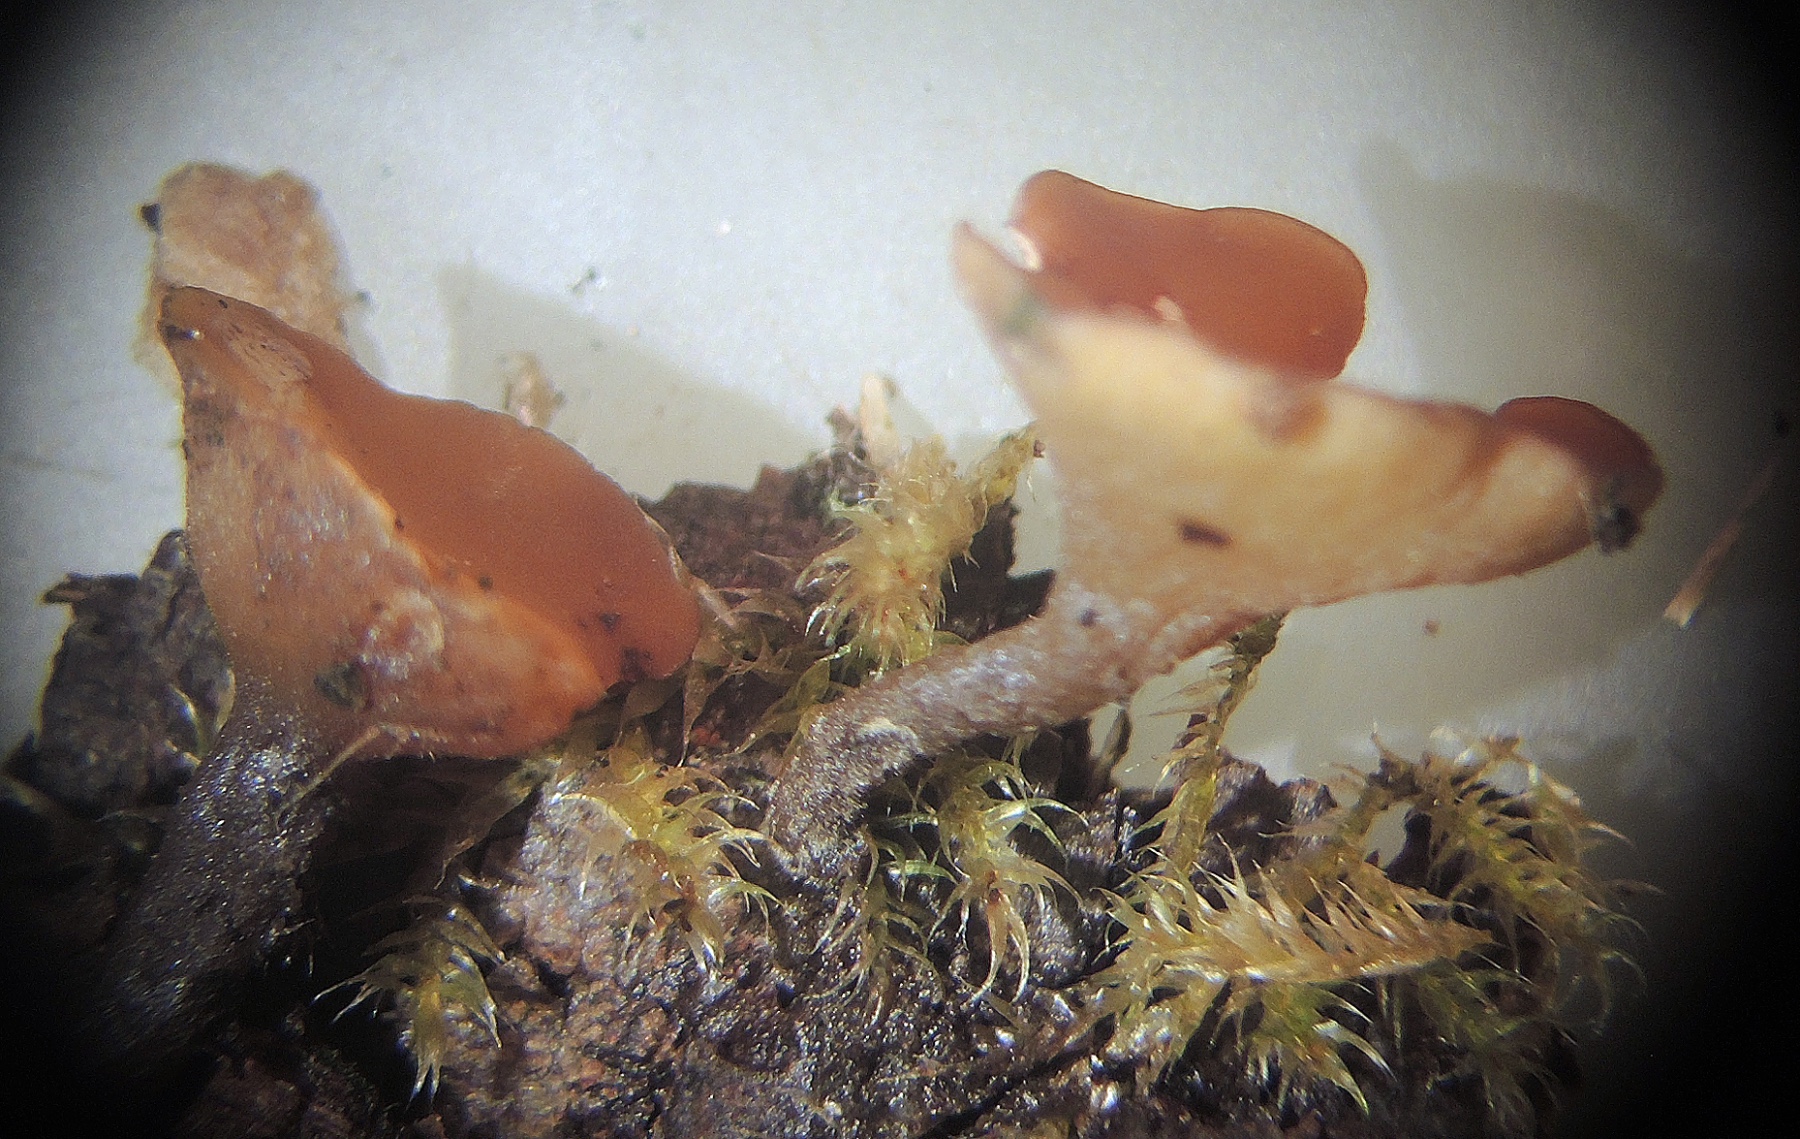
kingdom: Fungi
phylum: Ascomycota
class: Leotiomycetes
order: Helotiales
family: Rutstroemiaceae
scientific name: Rutstroemiaceae
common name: brunskivefamilien
